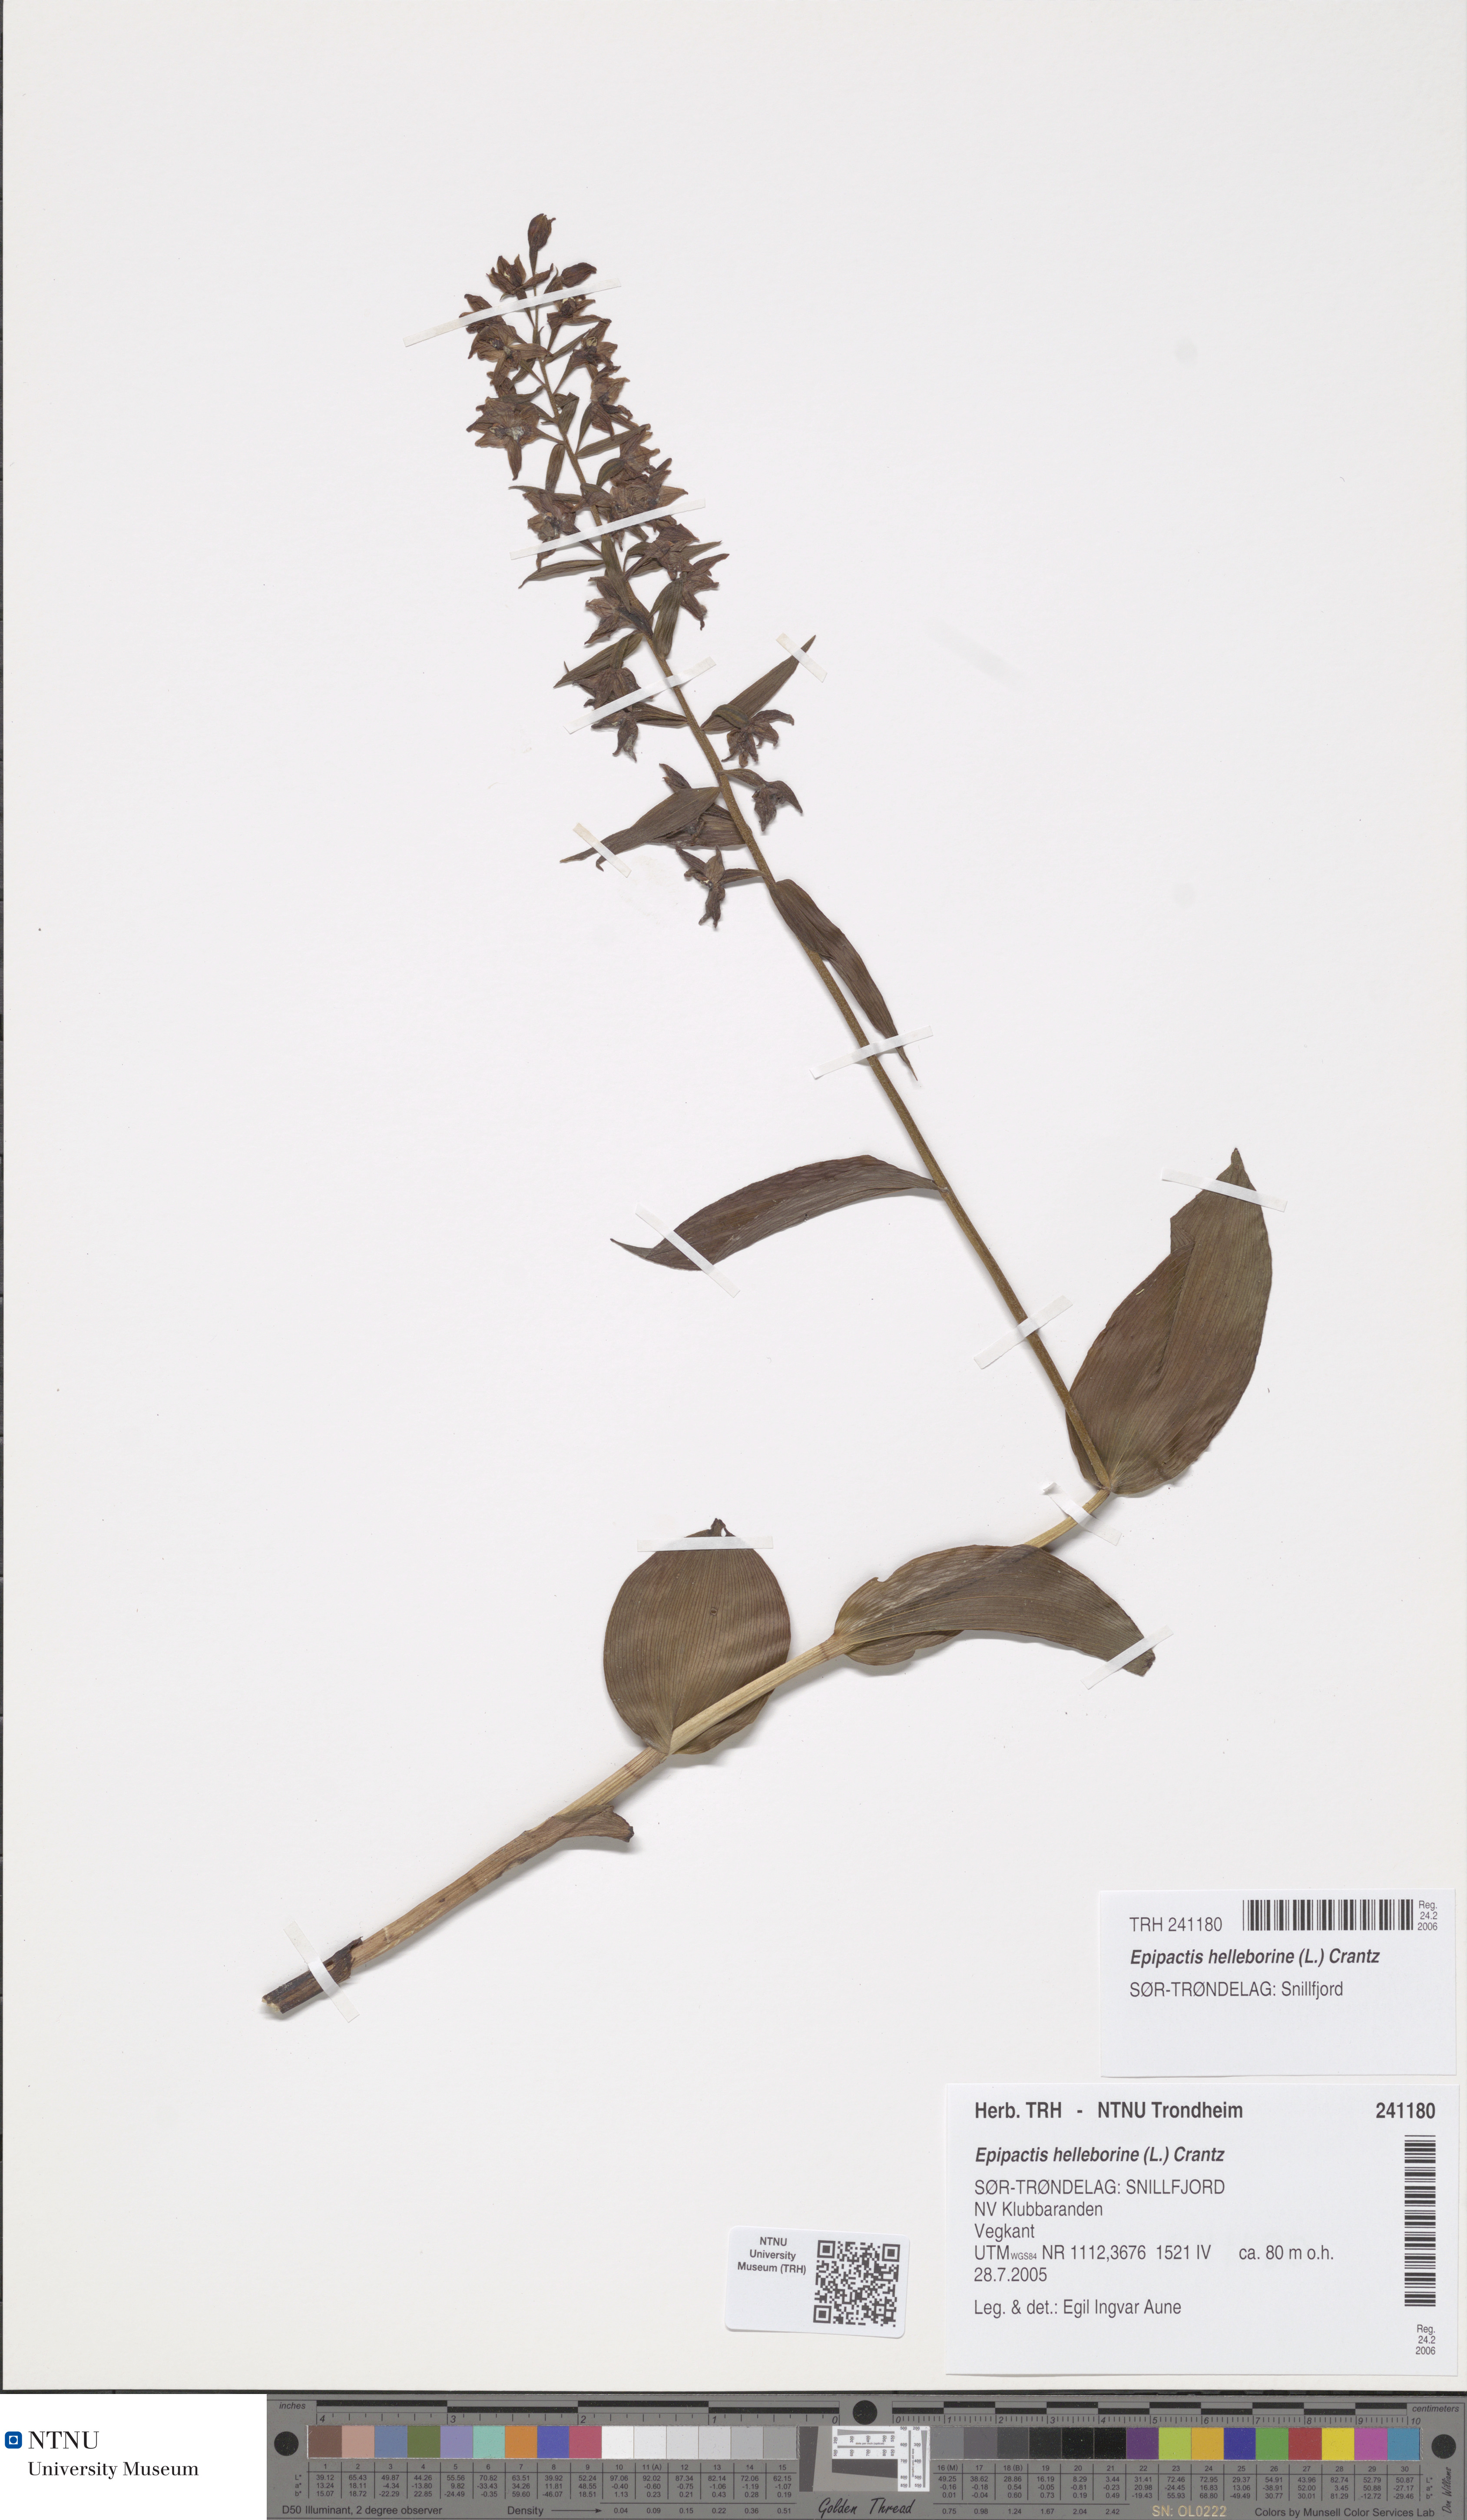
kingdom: Plantae
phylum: Tracheophyta
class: Liliopsida
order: Asparagales
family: Orchidaceae
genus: Epipactis
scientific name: Epipactis helleborine
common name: Broad-leaved helleborine
